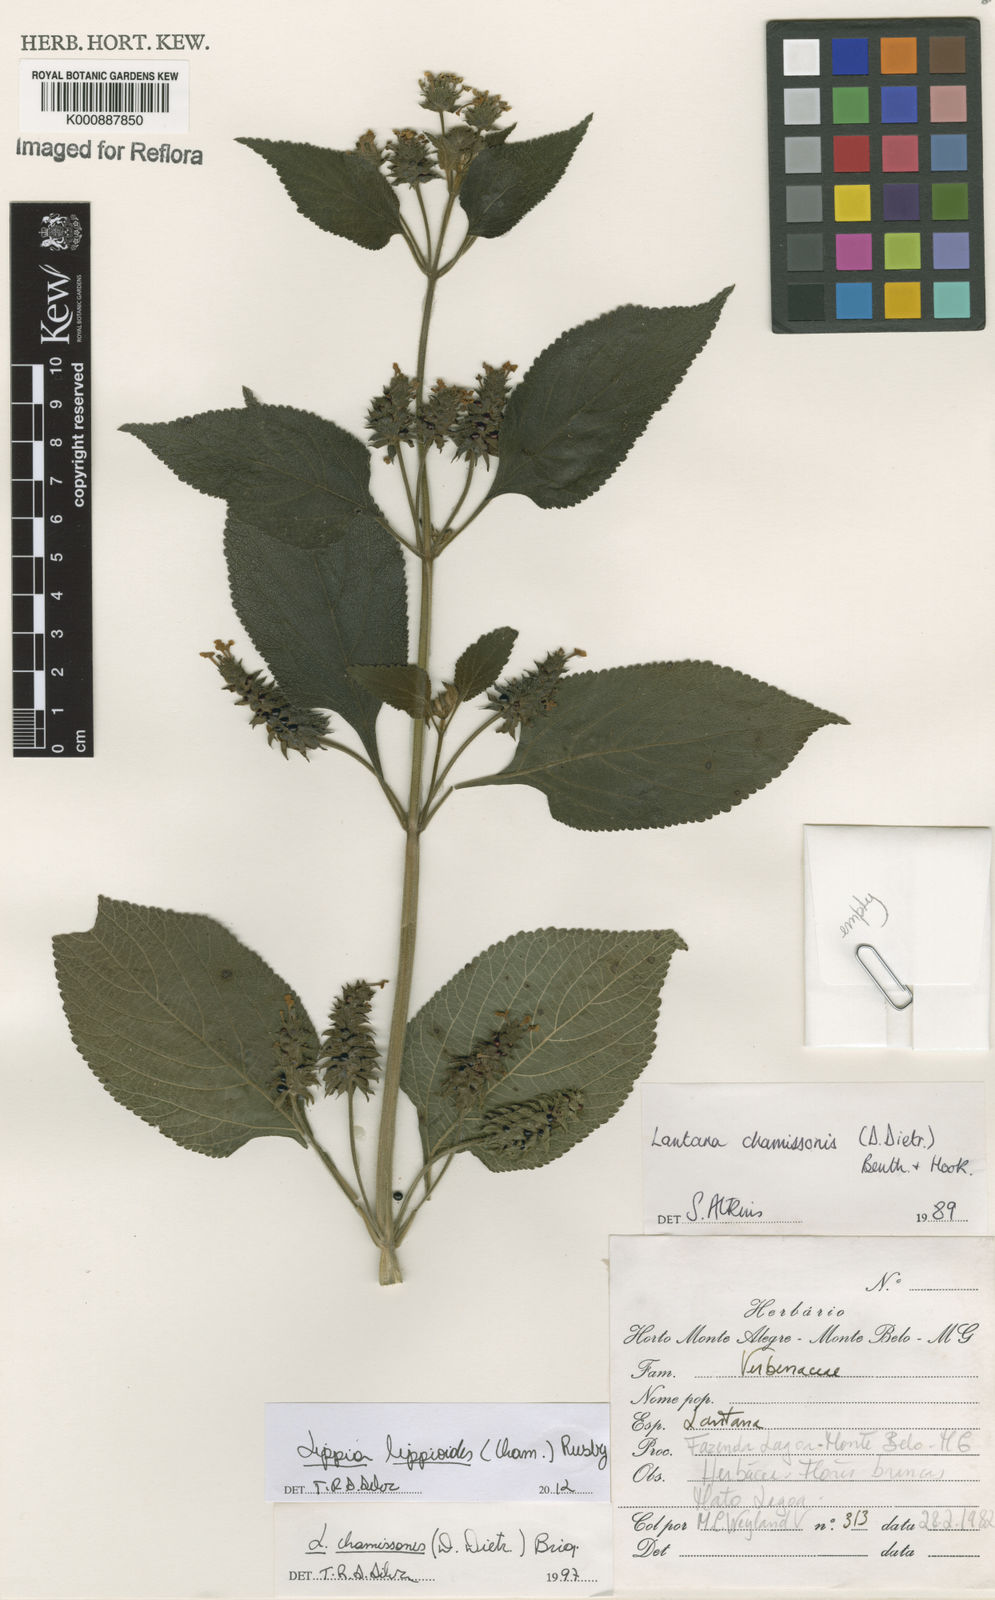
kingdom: Plantae
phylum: Tracheophyta
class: Magnoliopsida
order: Lamiales
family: Verbenaceae
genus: Lippia
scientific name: Lippia lippioides
